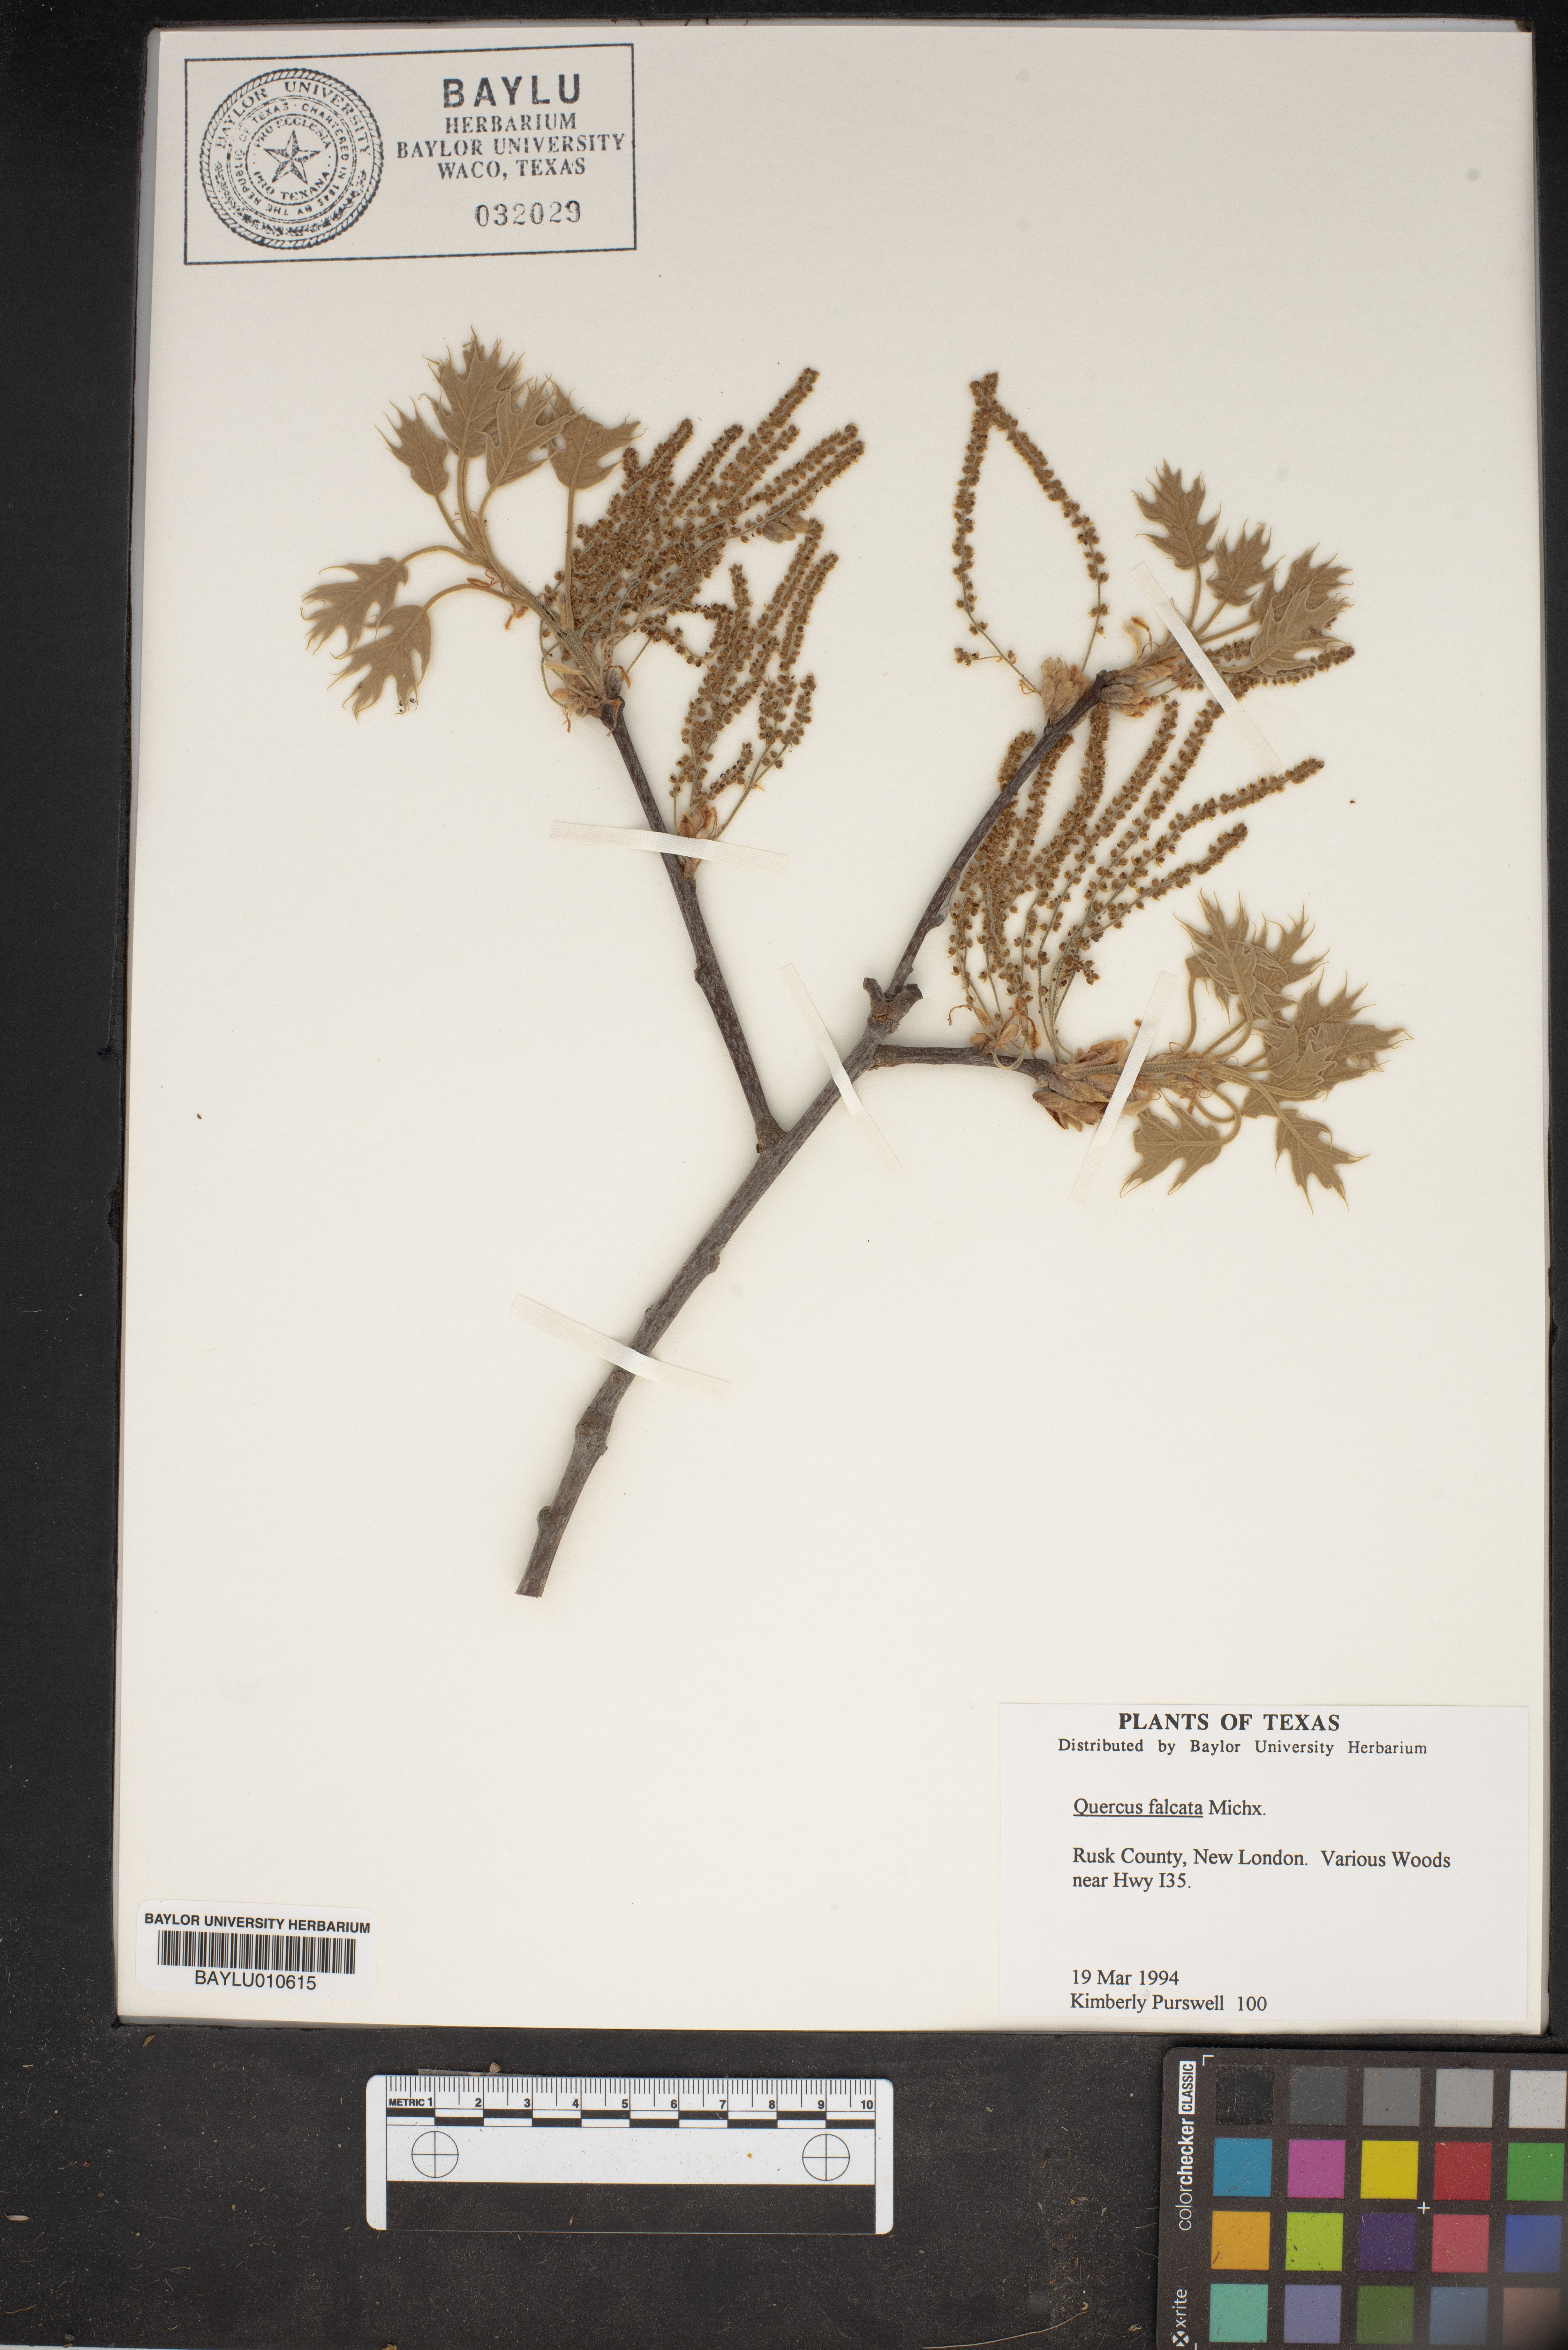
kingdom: Plantae
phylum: Tracheophyta
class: Magnoliopsida
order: Fagales
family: Fagaceae
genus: Quercus
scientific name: Quercus falcata
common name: Southern red oak
